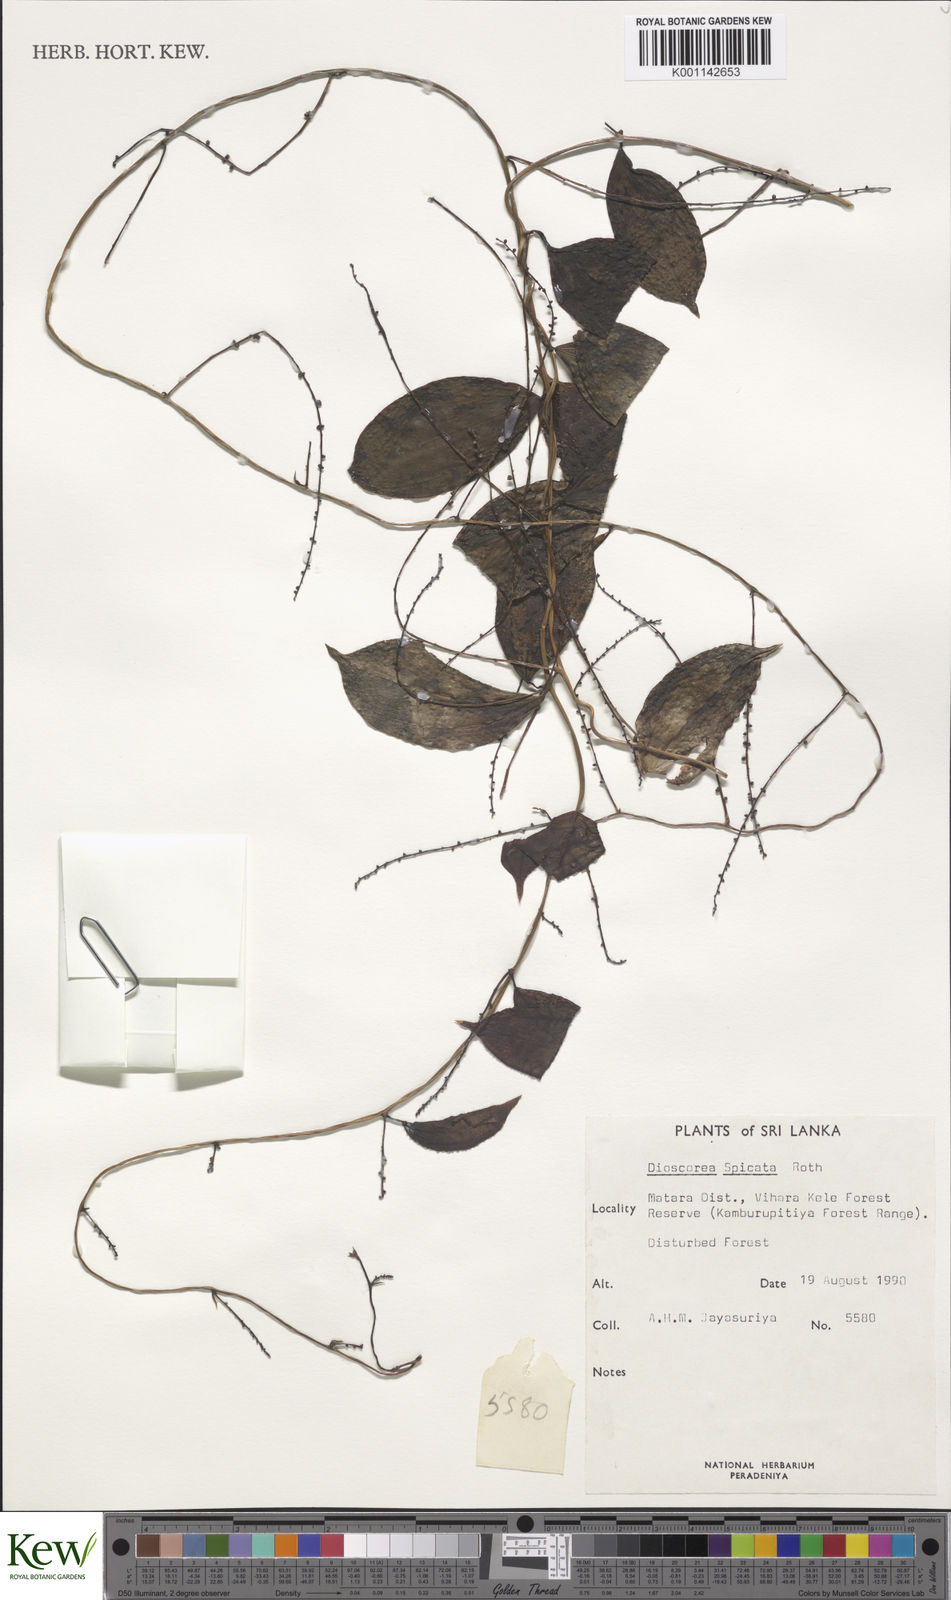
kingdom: Plantae
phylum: Tracheophyta
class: Liliopsida
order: Dioscoreales
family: Dioscoreaceae
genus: Dioscorea
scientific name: Dioscorea spicata
